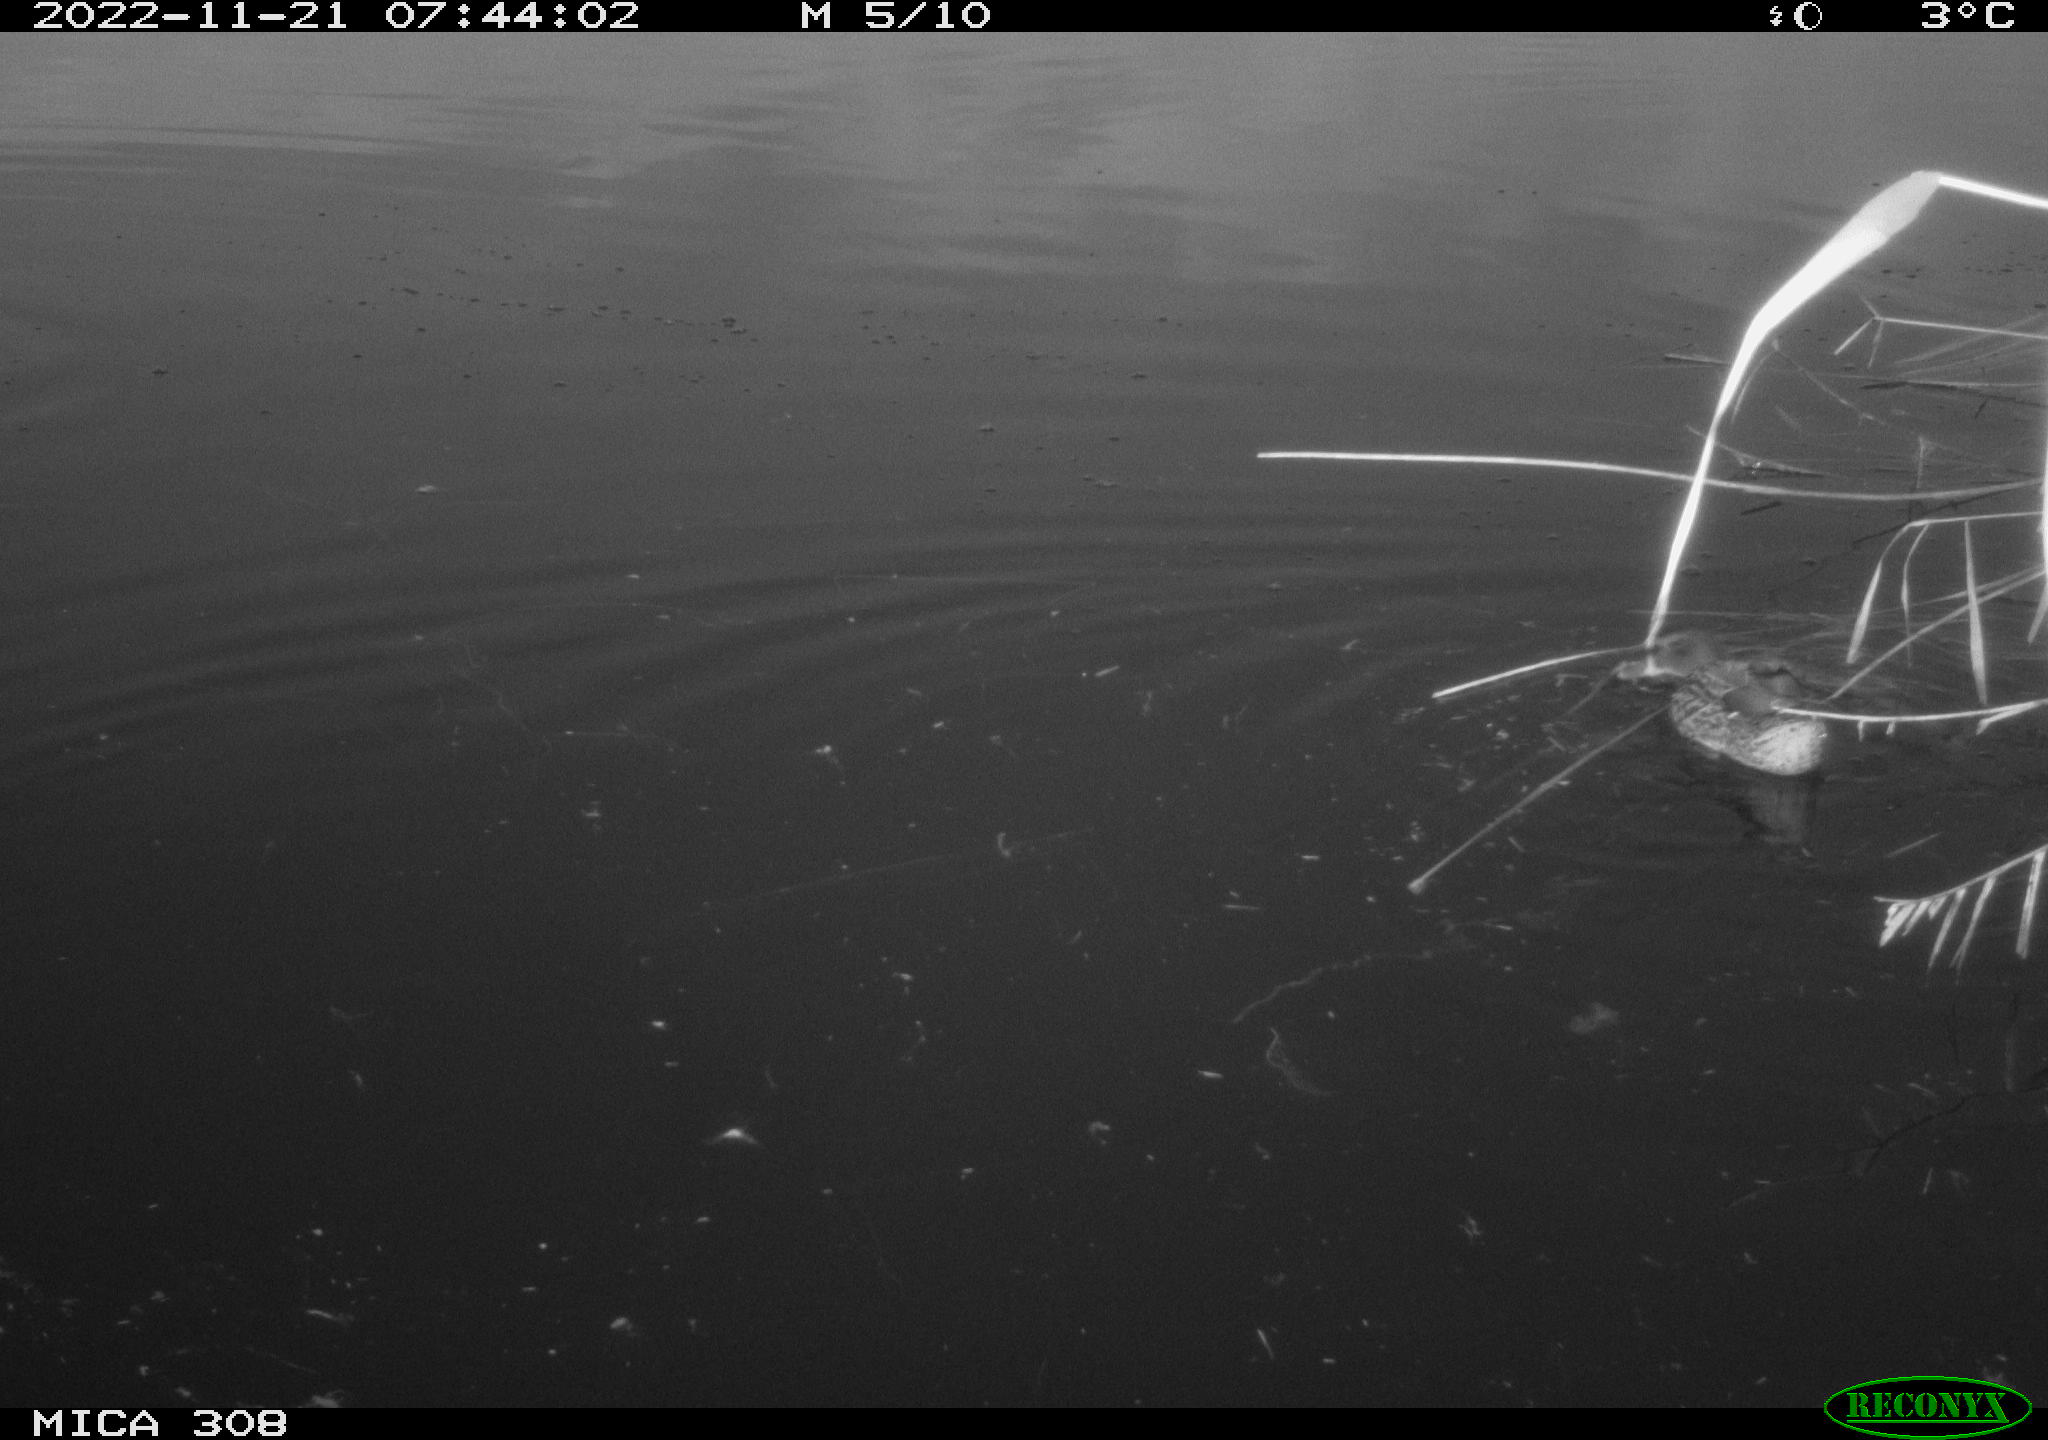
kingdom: Animalia
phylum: Chordata
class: Aves
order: Anseriformes
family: Anatidae
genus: Anas
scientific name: Anas
